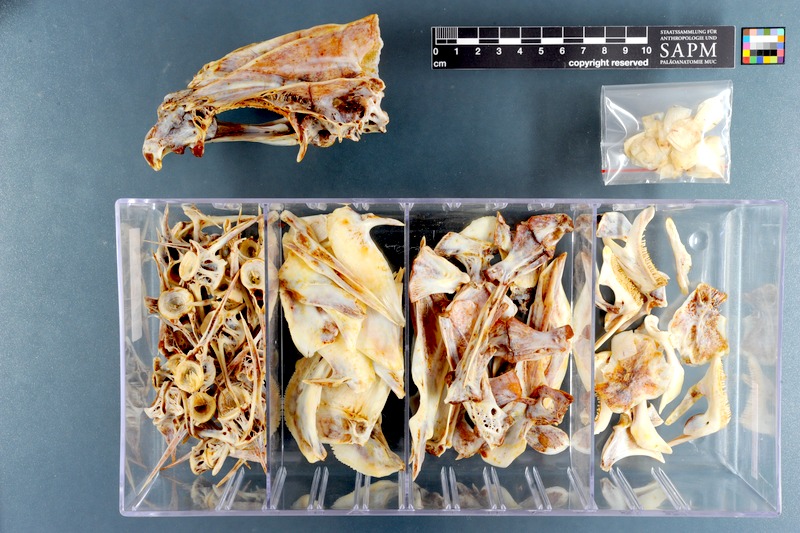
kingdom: Animalia
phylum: Chordata
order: Perciformes
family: Haemulidae
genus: Plectorhinchus
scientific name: Plectorhinchus schotaf
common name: Minstrel sweetlips
